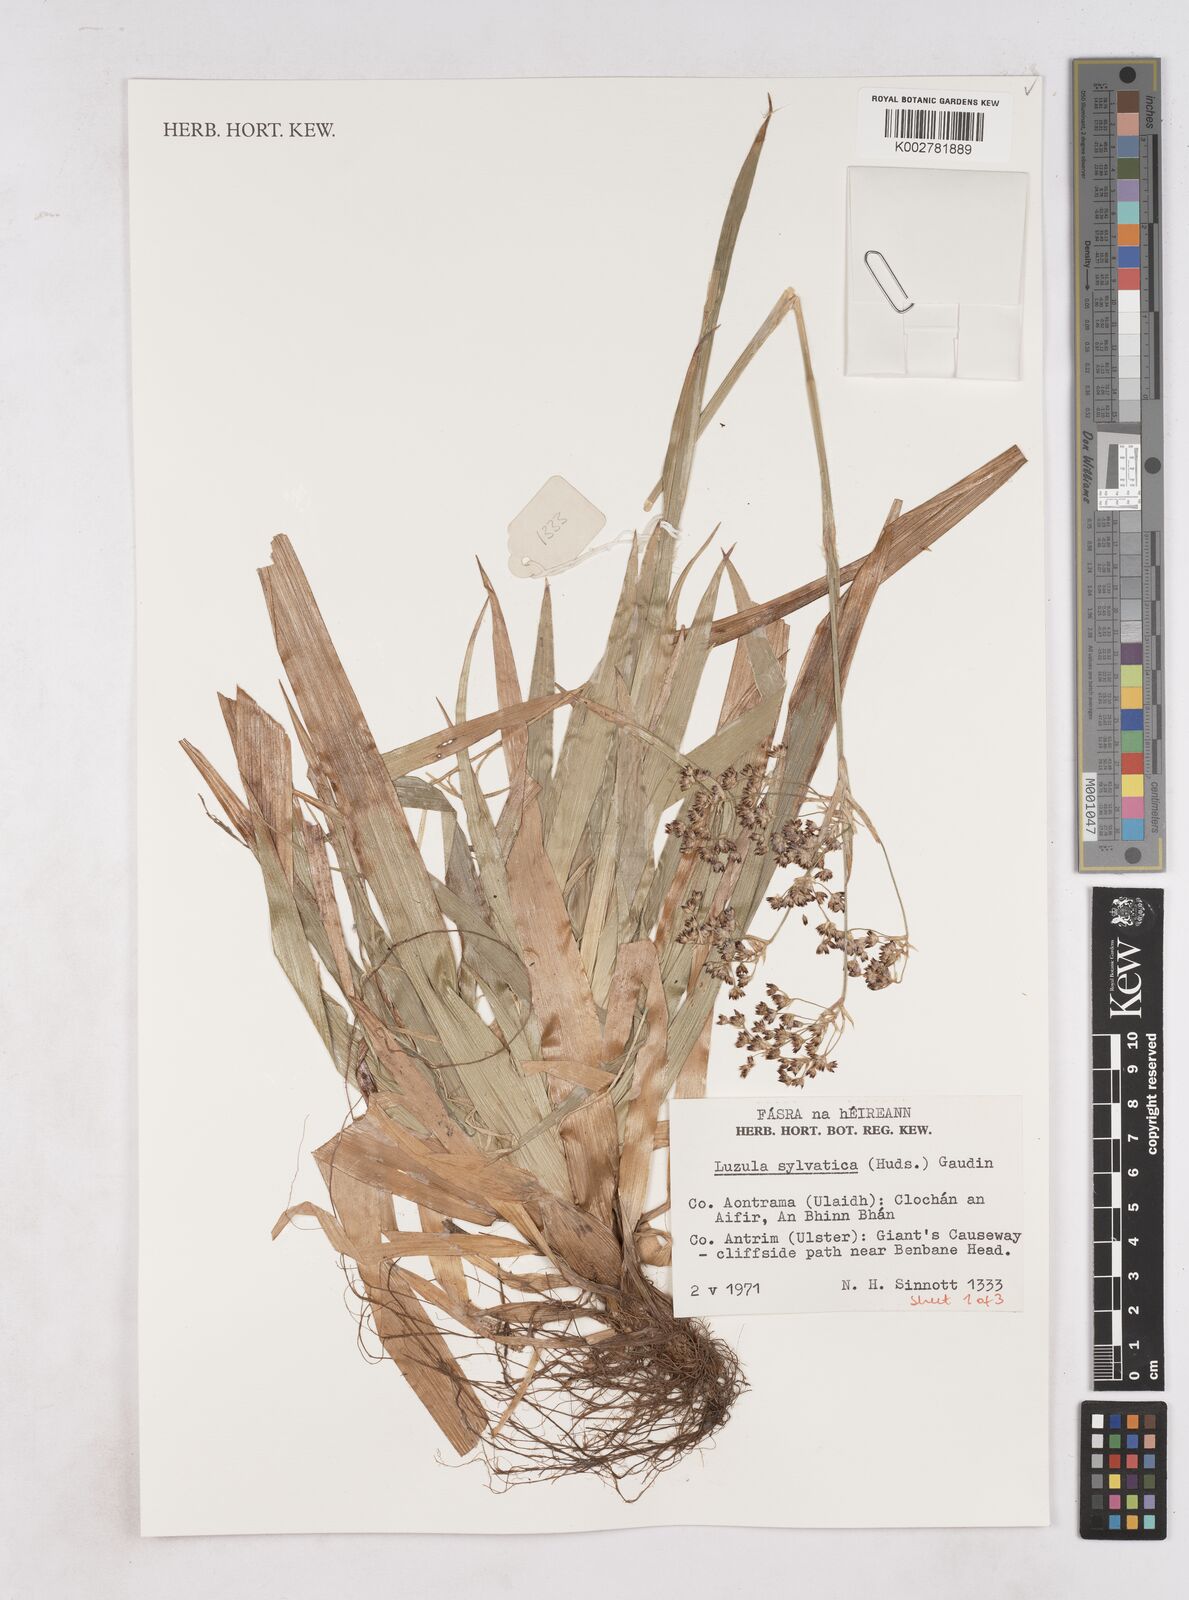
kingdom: Plantae
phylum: Tracheophyta
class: Liliopsida
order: Poales
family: Juncaceae
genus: Luzula
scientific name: Luzula sylvatica
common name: Great wood-rush
